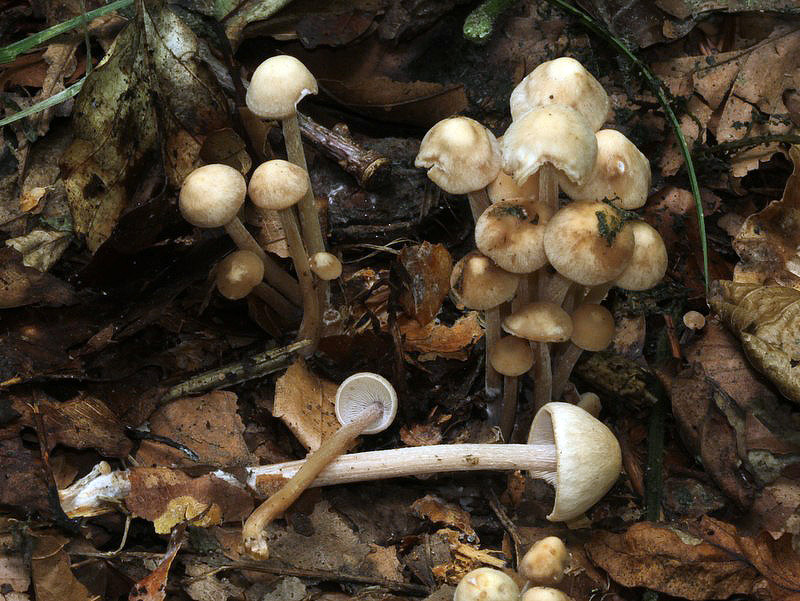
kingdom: Fungi
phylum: Basidiomycota
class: Agaricomycetes
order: Agaricales
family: Omphalotaceae
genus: Collybiopsis
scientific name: Collybiopsis confluens
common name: knippe-fladhat
